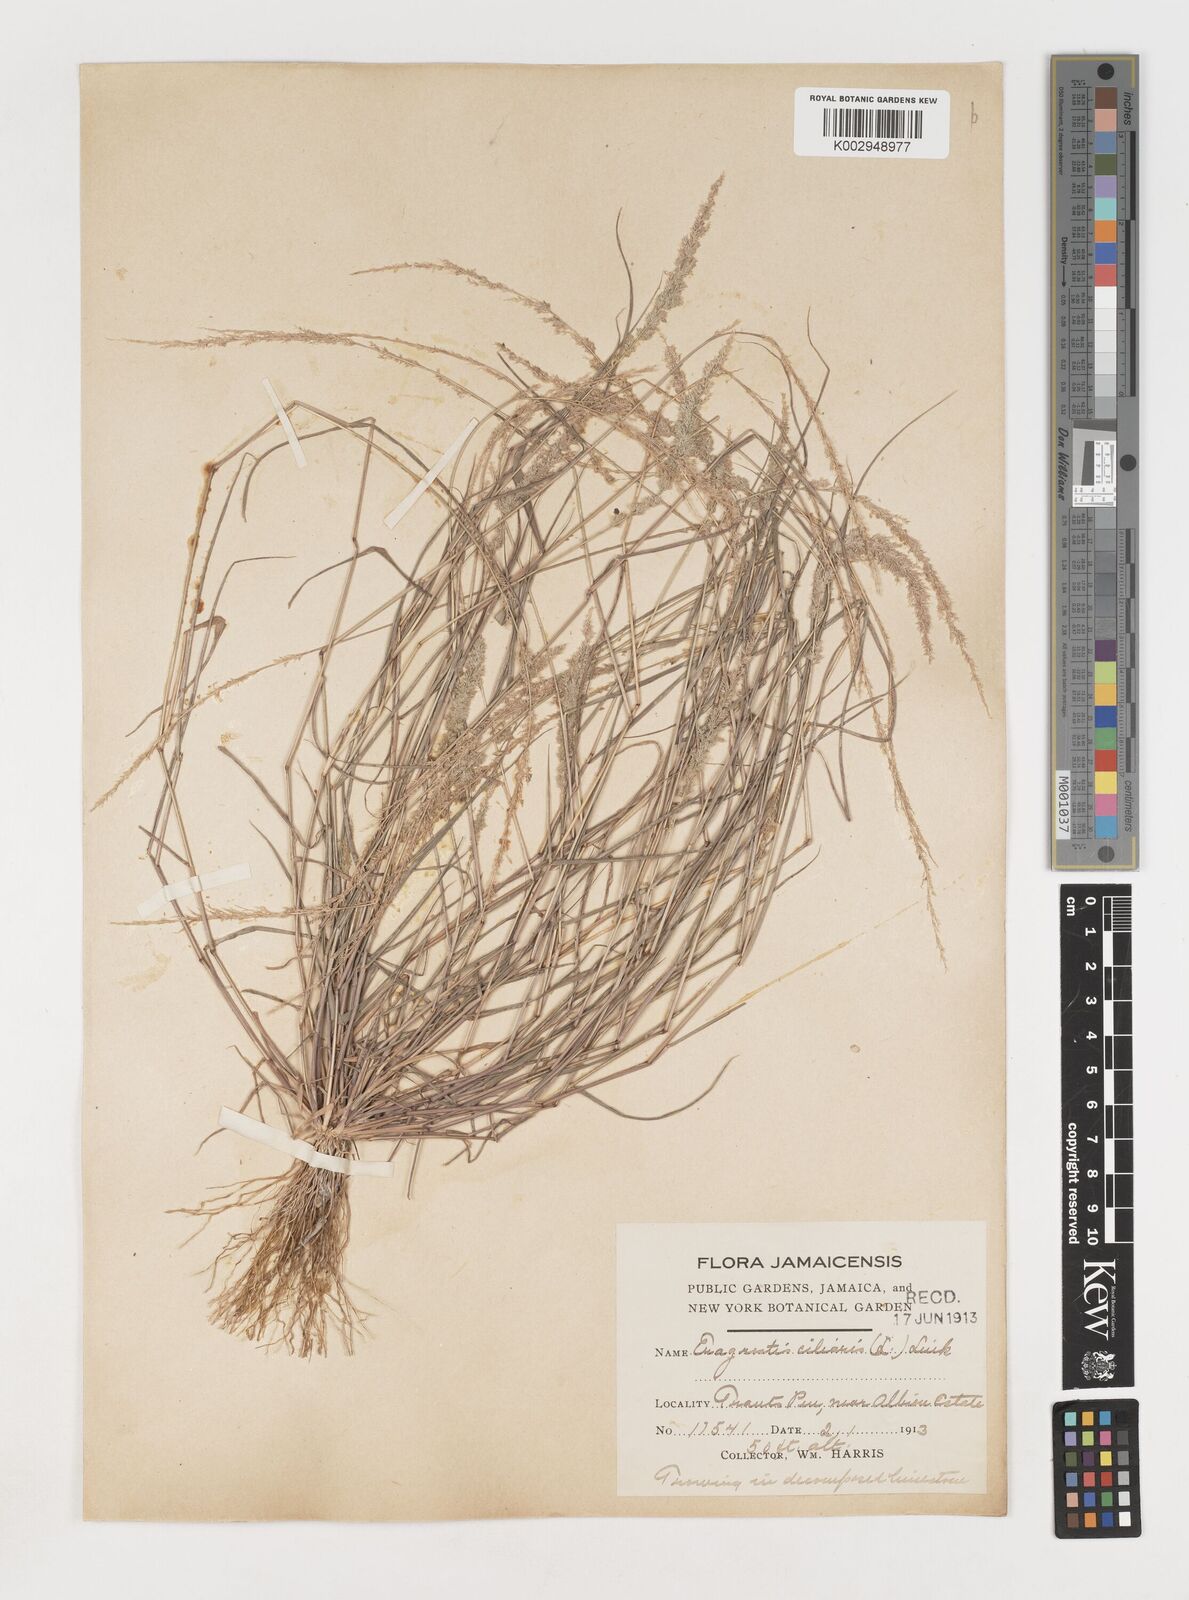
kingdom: Plantae
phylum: Tracheophyta
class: Liliopsida
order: Poales
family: Poaceae
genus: Eragrostis
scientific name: Eragrostis ciliaris
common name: Gophertail lovegrass
